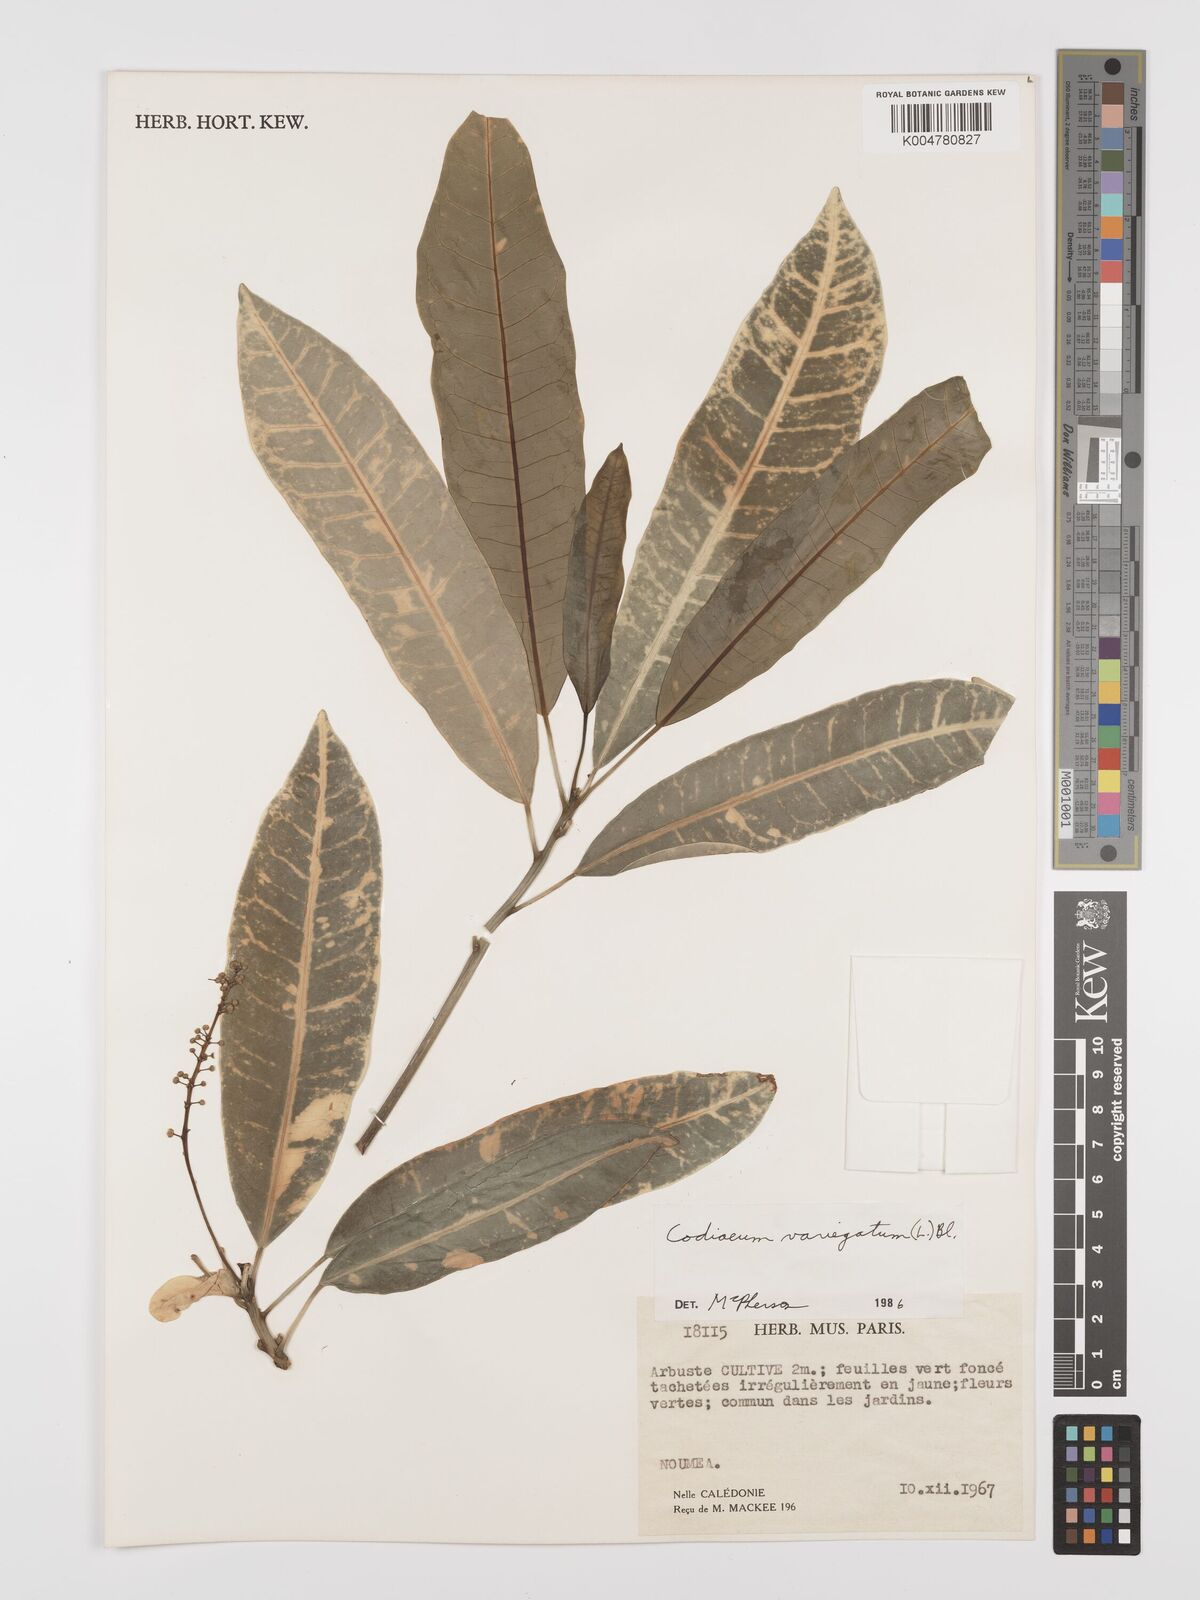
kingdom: Plantae
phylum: Tracheophyta
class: Magnoliopsida
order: Malpighiales
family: Euphorbiaceae
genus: Codiaeum
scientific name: Codiaeum variegatum
